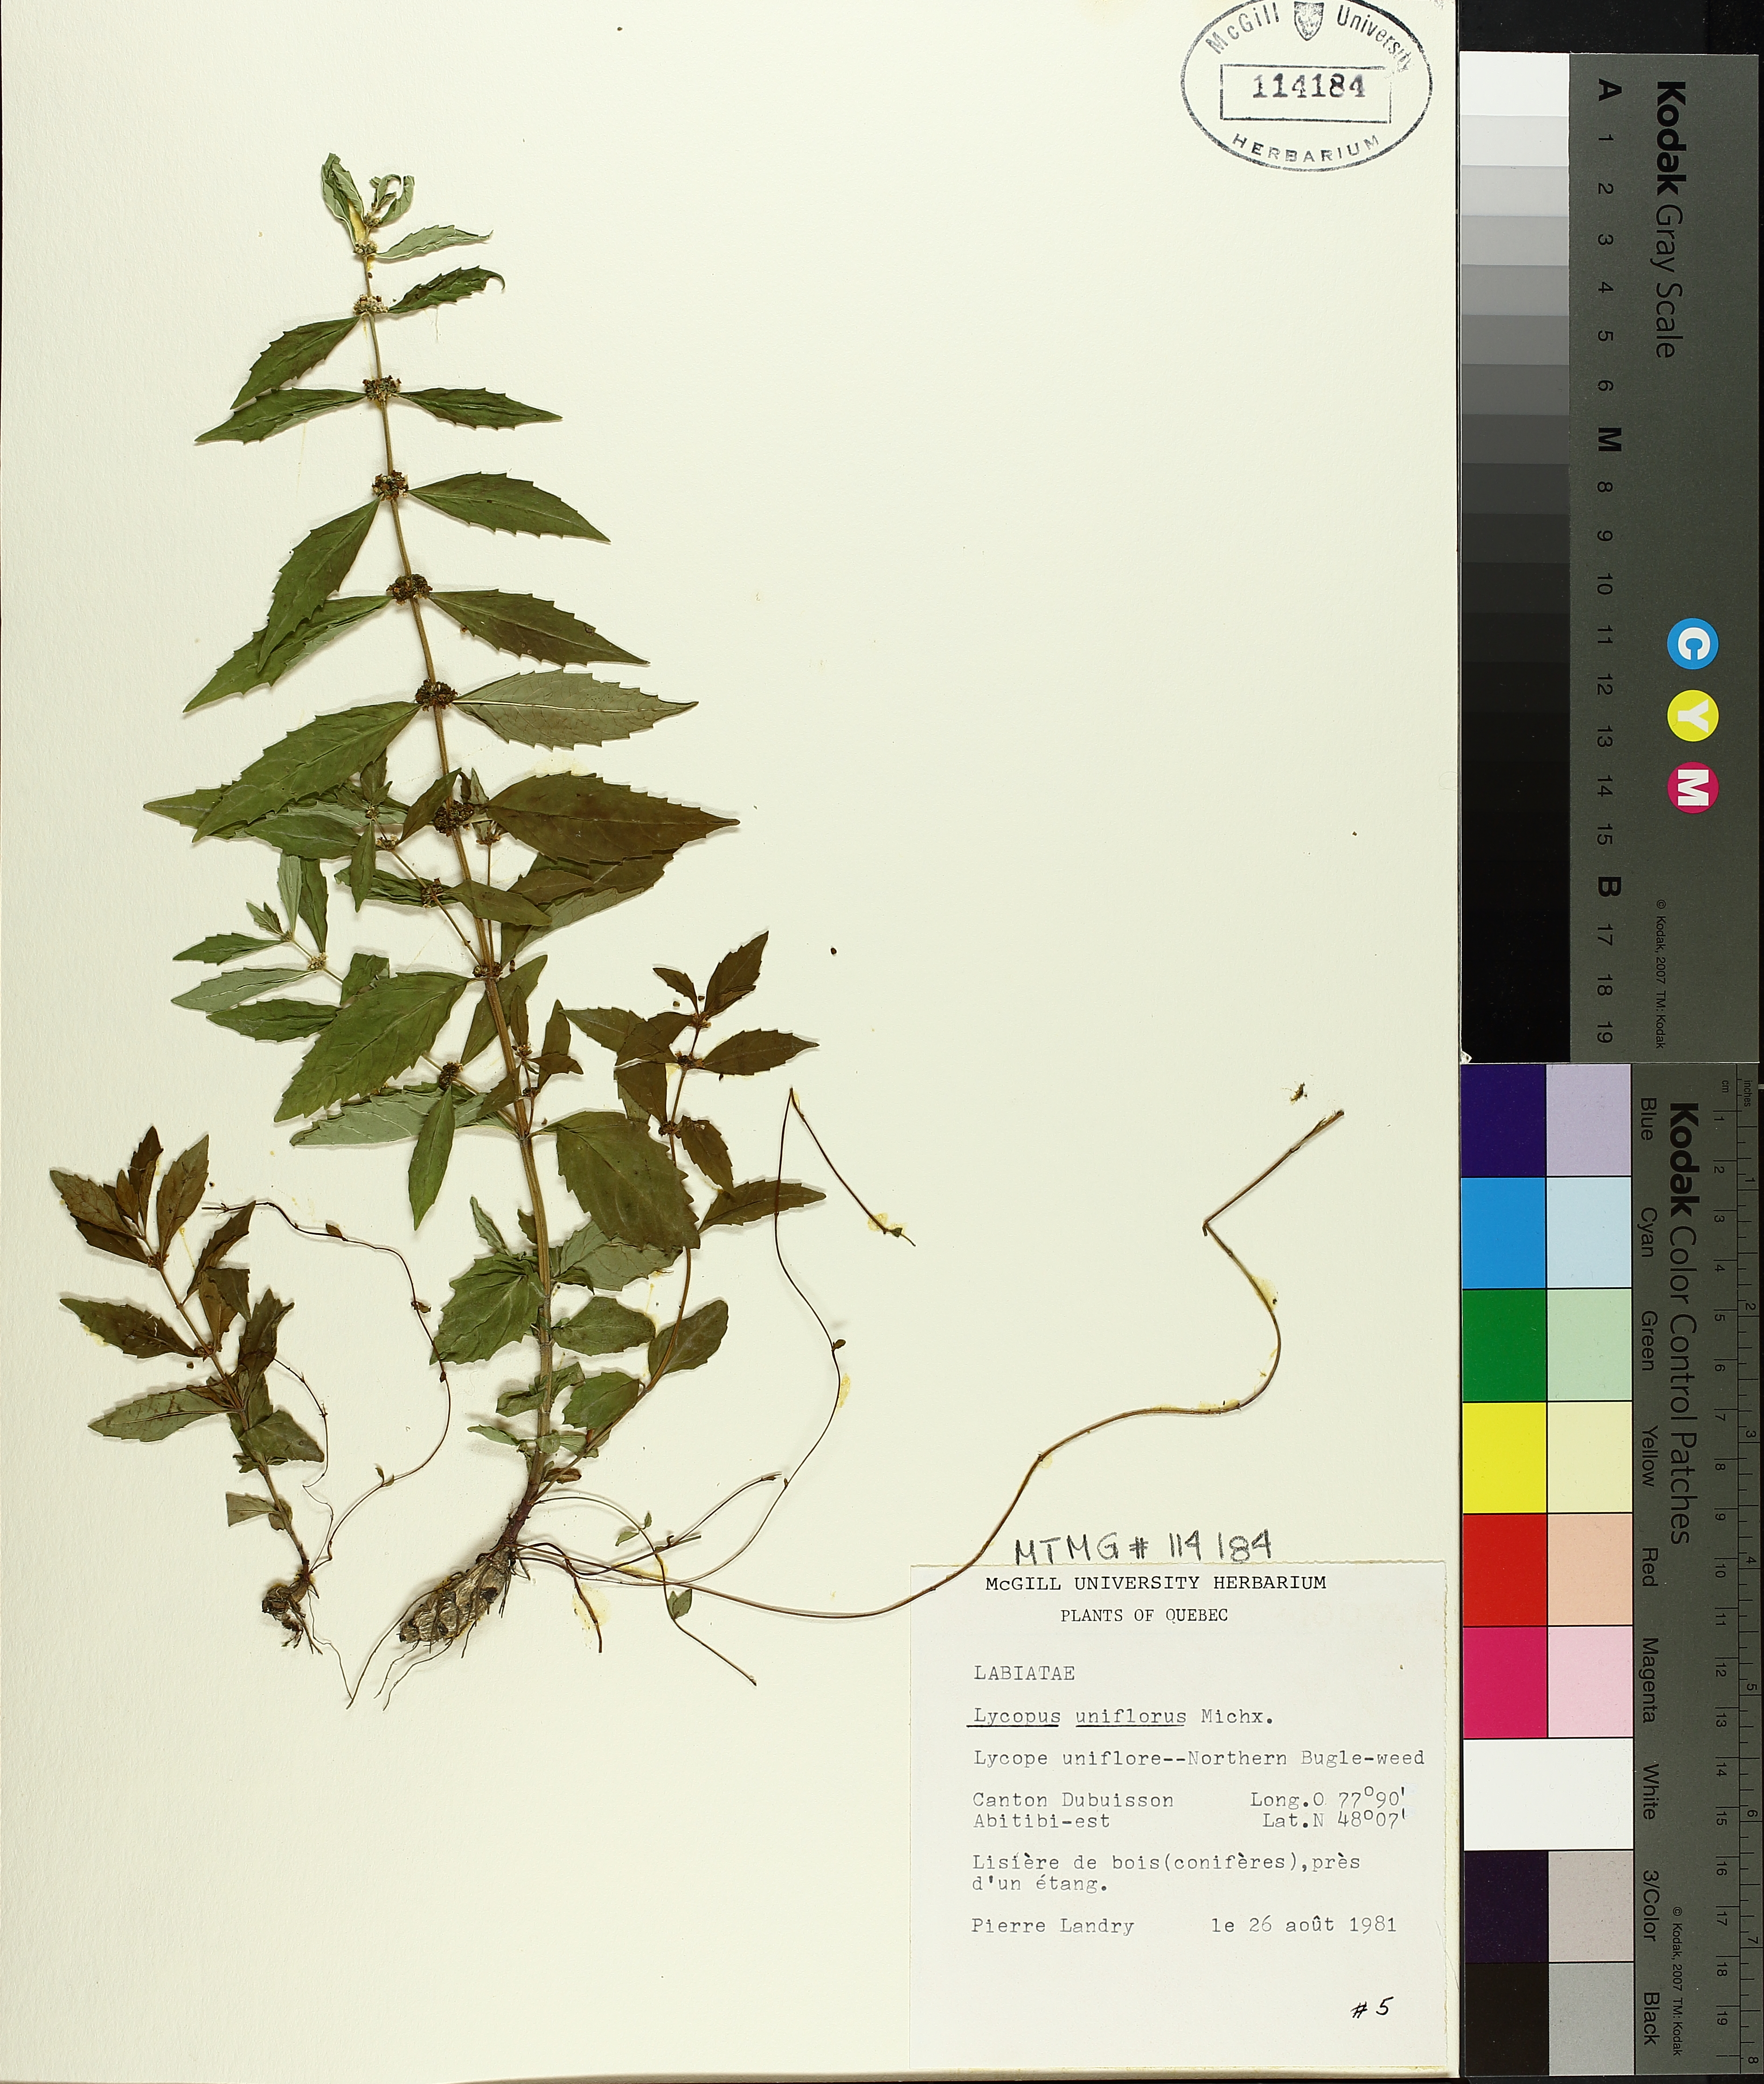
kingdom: Plantae
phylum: Tracheophyta
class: Magnoliopsida
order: Lamiales
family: Lamiaceae
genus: Lycopus
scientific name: Lycopus uniflorus
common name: Northern bugleweed
